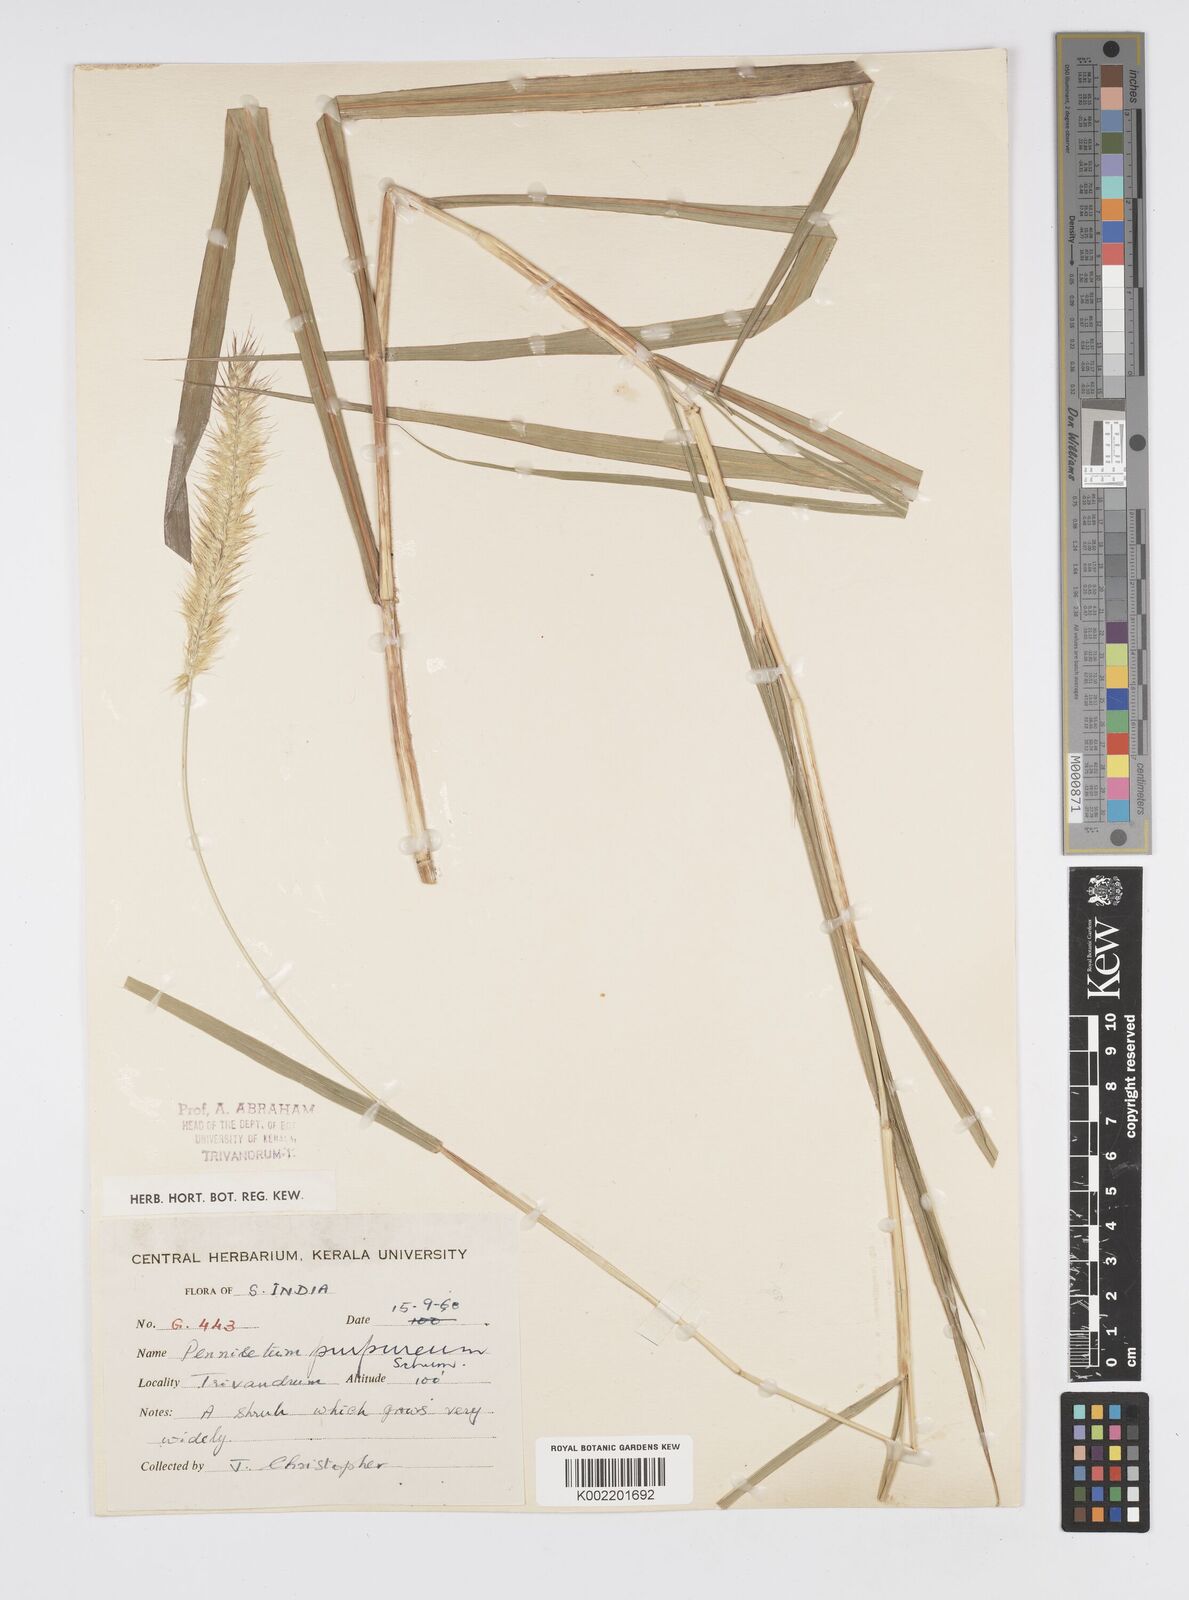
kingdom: Plantae
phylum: Tracheophyta
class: Liliopsida
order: Poales
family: Poaceae
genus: Cenchrus
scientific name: Cenchrus purpureus
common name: Elephant grass
